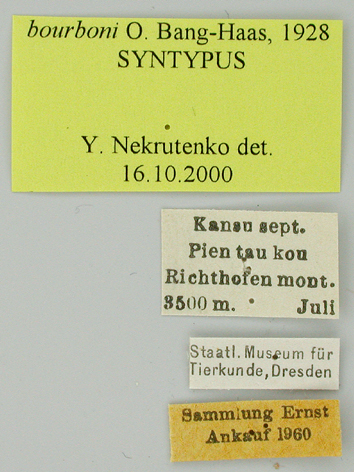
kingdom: Animalia
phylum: Arthropoda
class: Insecta
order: Lepidoptera
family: Papilionidae
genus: Parnassius
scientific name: Parnassius orleans
